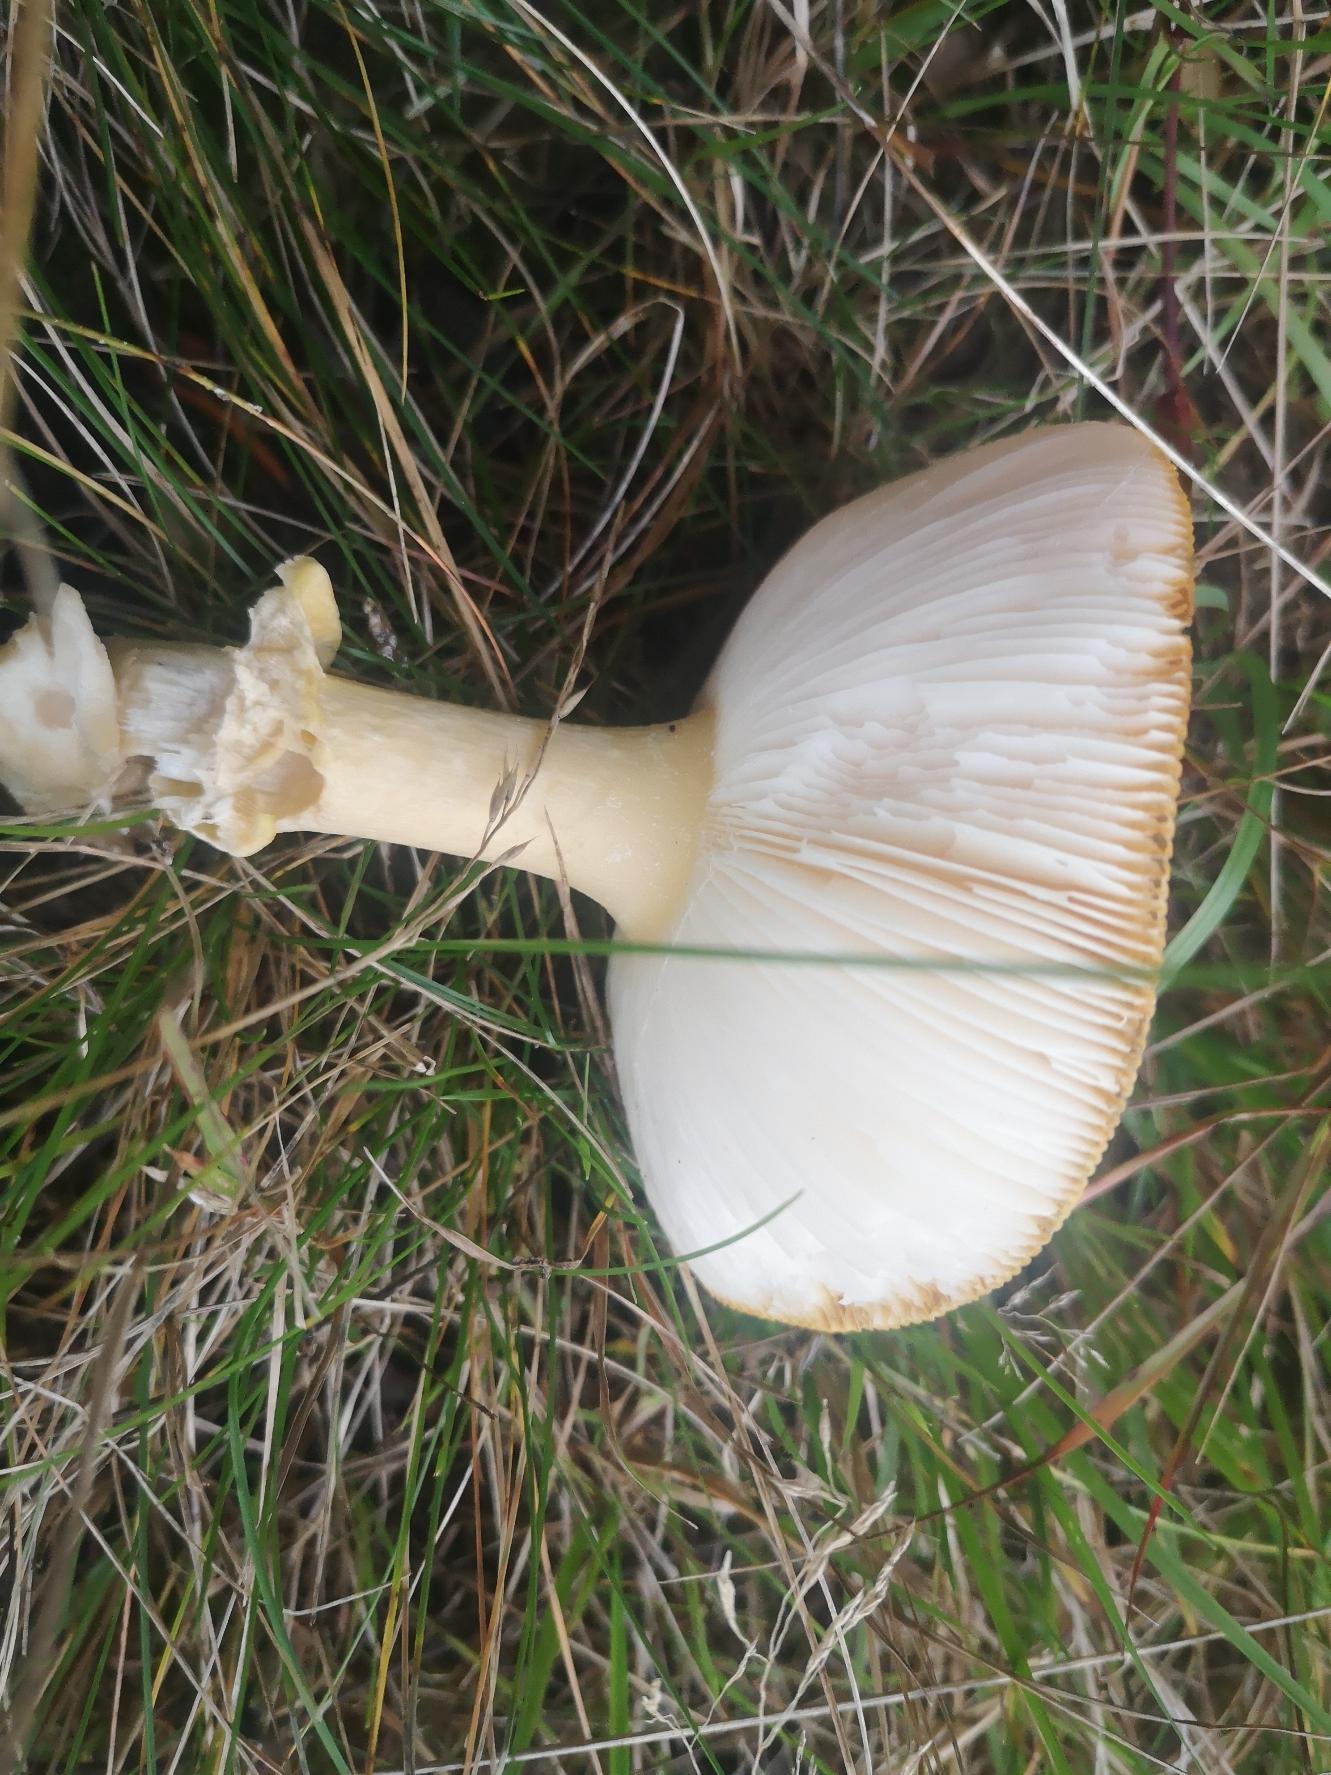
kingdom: Fungi
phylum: Basidiomycota
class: Agaricomycetes
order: Agaricales
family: Amanitaceae
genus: Amanita
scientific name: Amanita muscaria
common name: Rød fluesvamp
